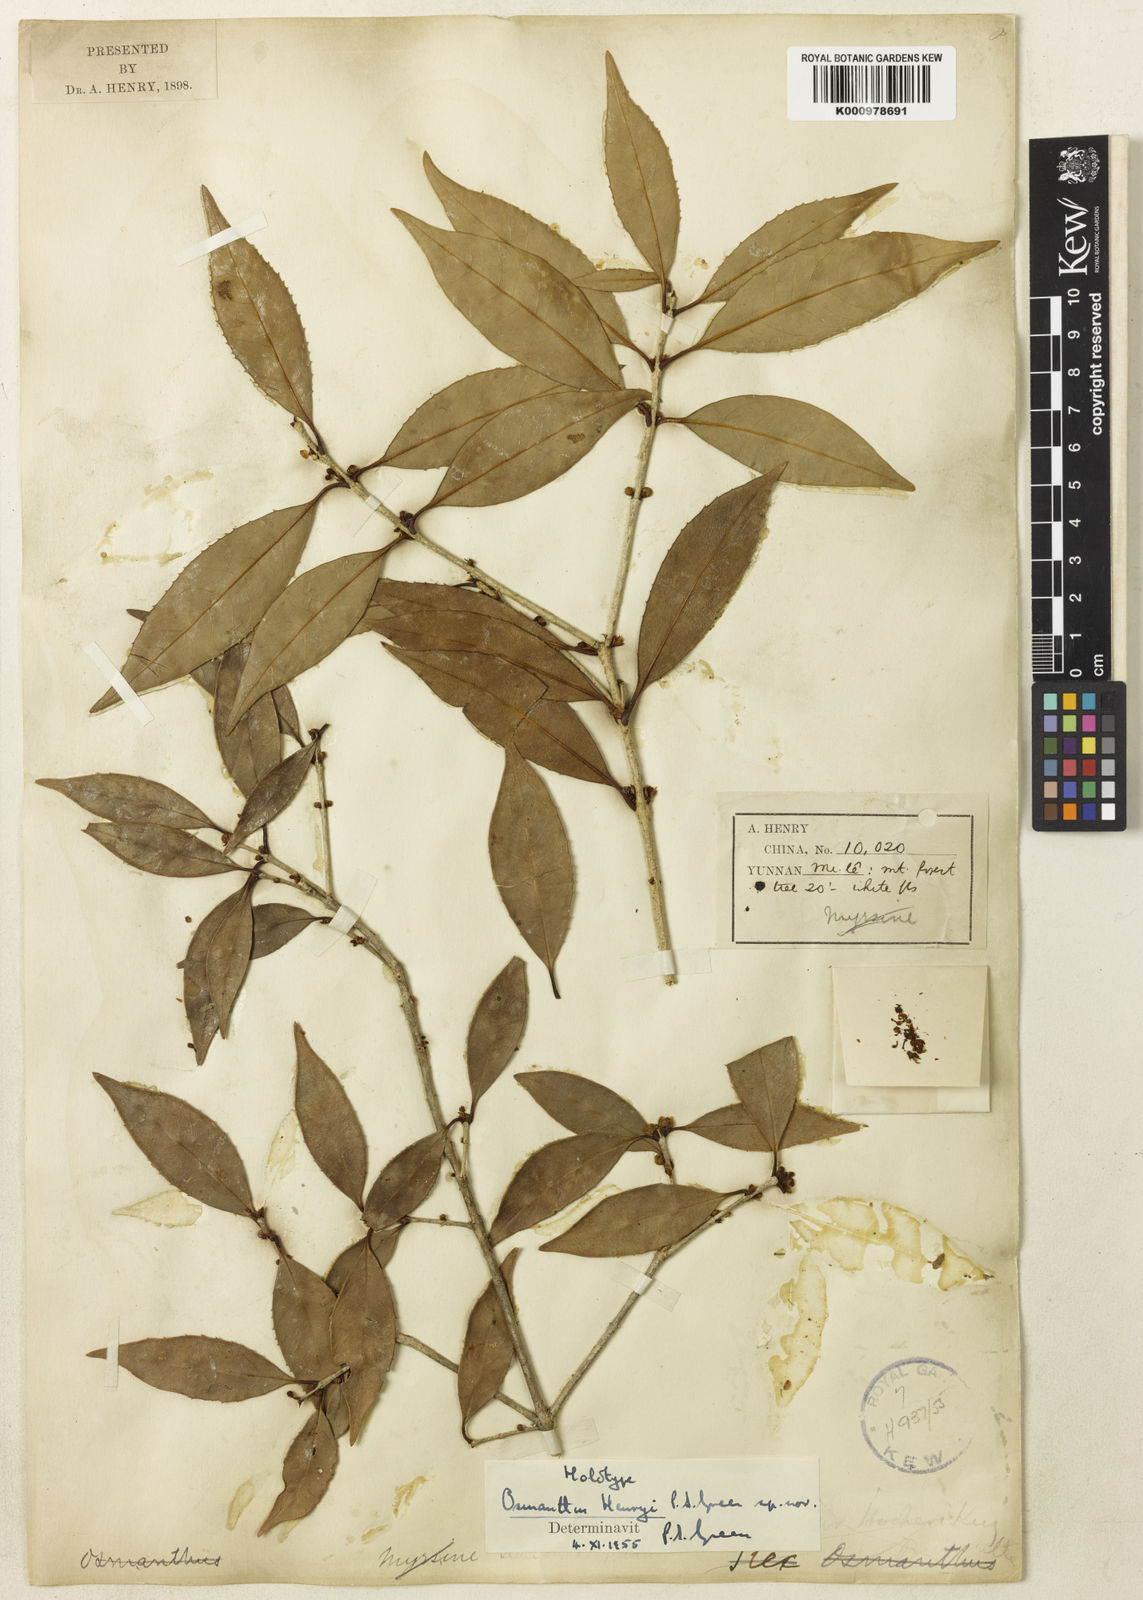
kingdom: Plantae
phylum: Tracheophyta
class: Magnoliopsida
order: Lamiales
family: Oleaceae
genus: Osmanthus
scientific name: Osmanthus henryi
